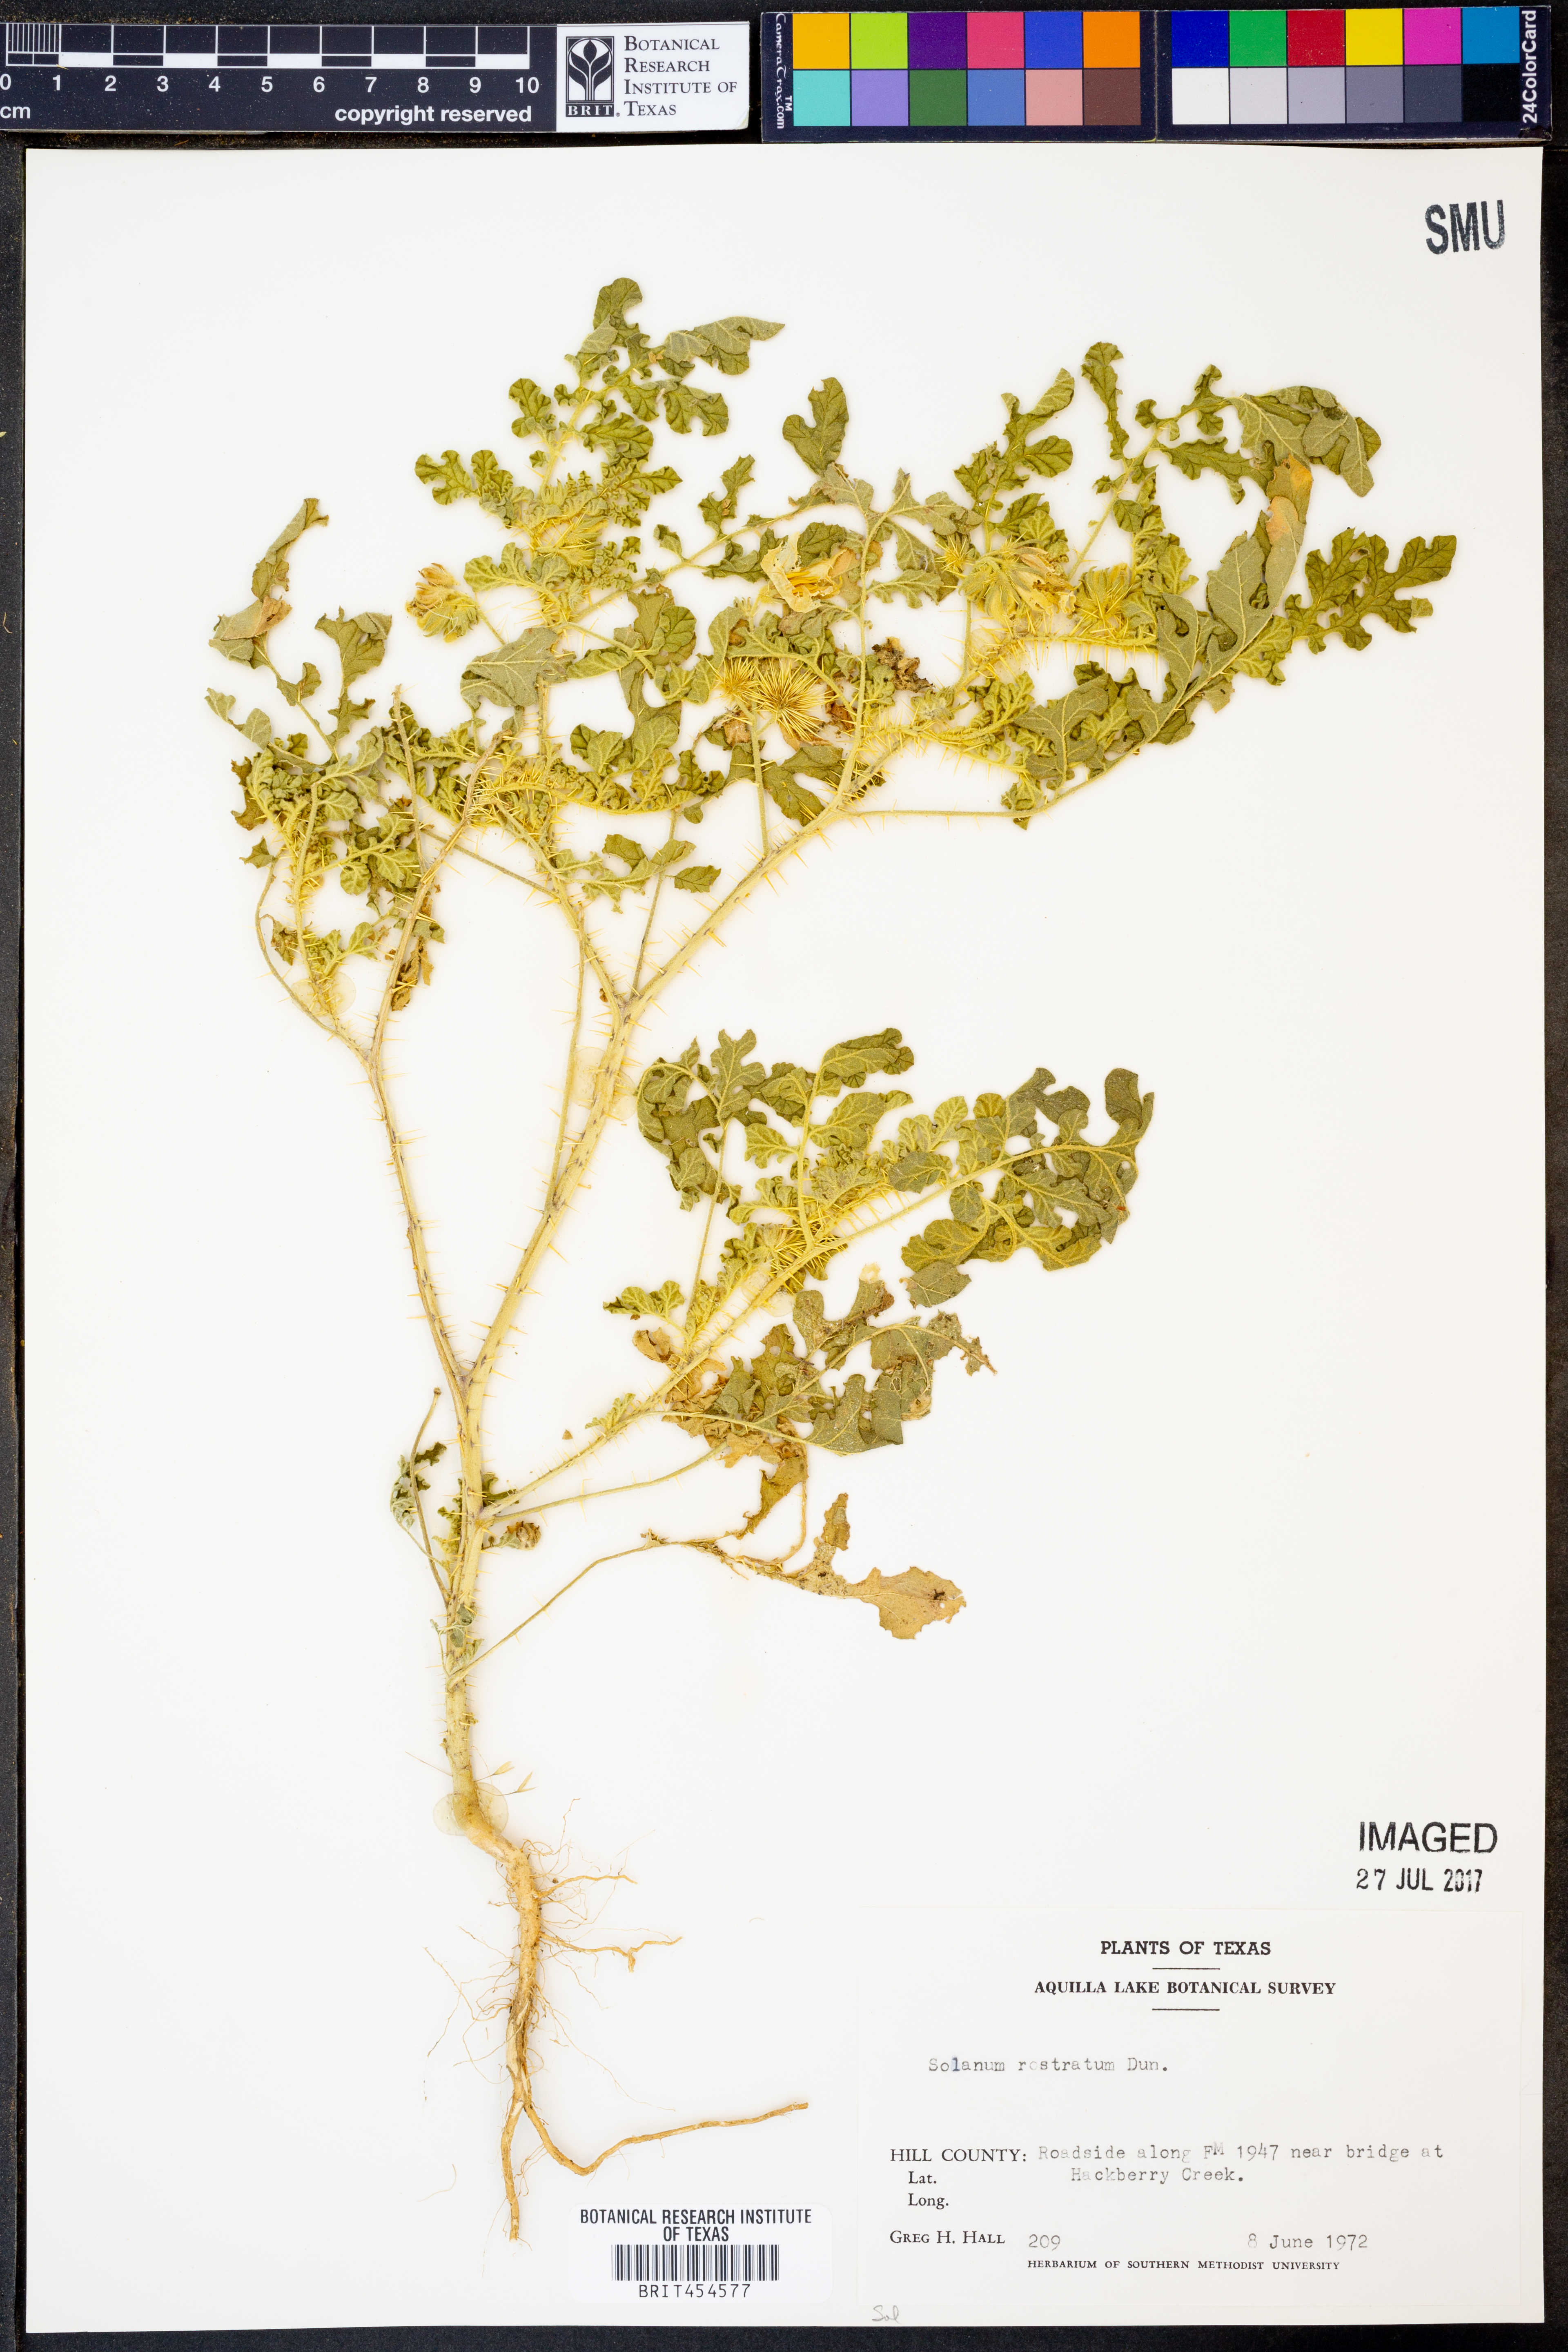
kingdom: Plantae
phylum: Tracheophyta
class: Magnoliopsida
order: Solanales
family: Solanaceae
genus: Solanum
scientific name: Solanum angustifolium
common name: Buffalobur nightshade
